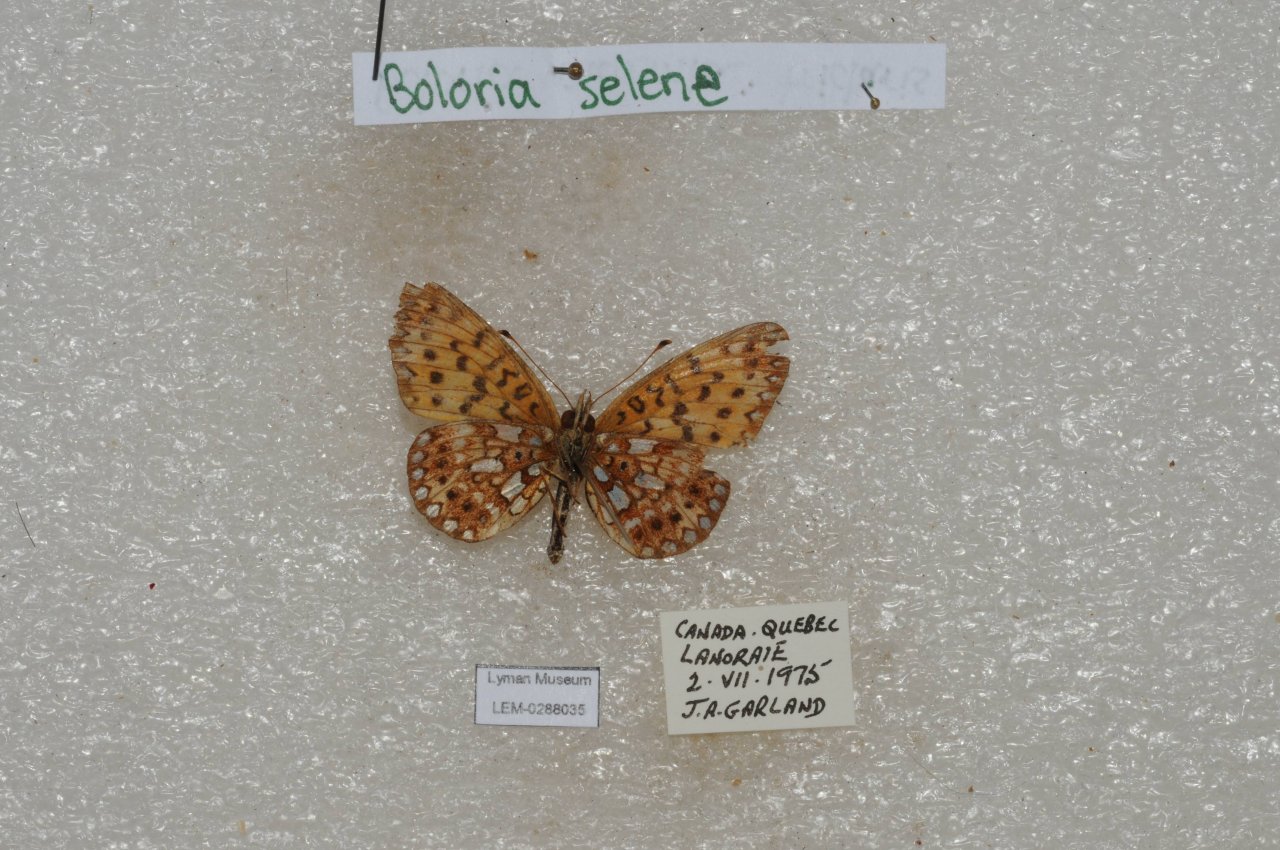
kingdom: Animalia
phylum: Arthropoda
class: Insecta
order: Lepidoptera
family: Nymphalidae
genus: Boloria
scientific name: Boloria selene
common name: Silver-bordered Fritillary
